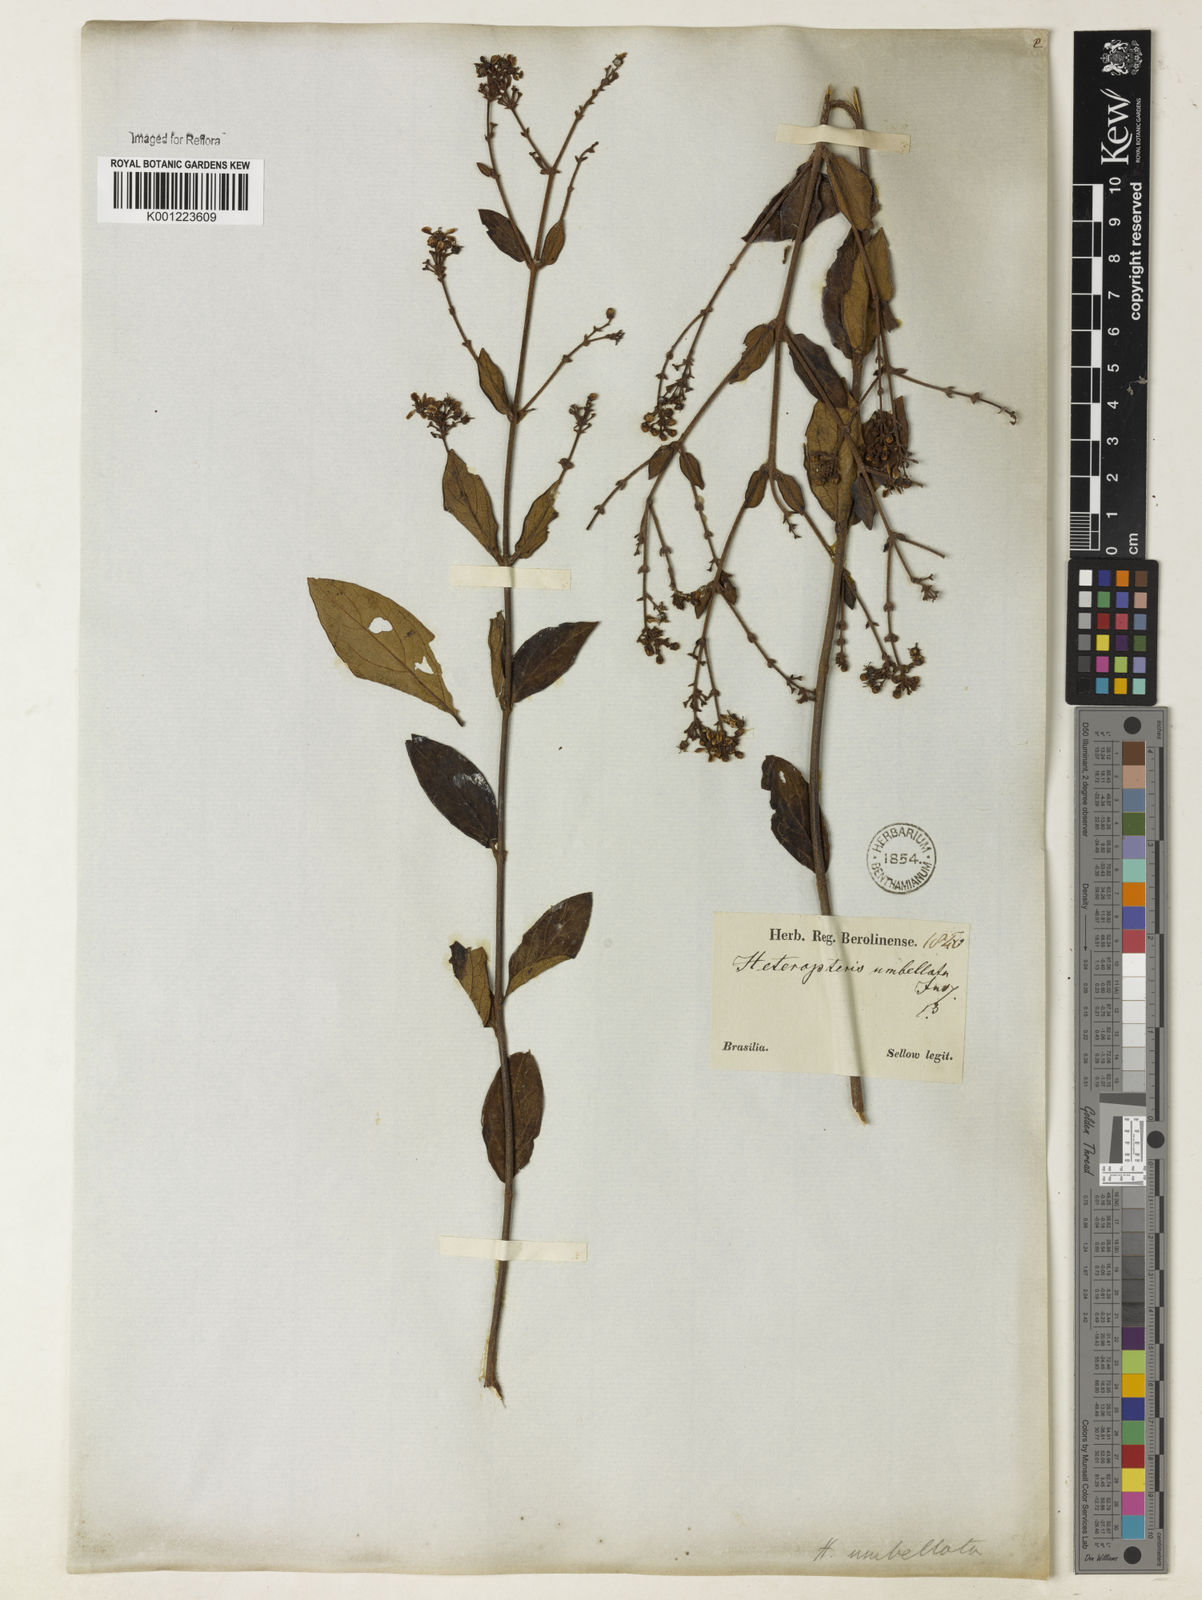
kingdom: Plantae
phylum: Tracheophyta
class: Magnoliopsida
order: Malpighiales
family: Malpighiaceae
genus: Heteropterys
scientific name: Heteropterys umbellata
